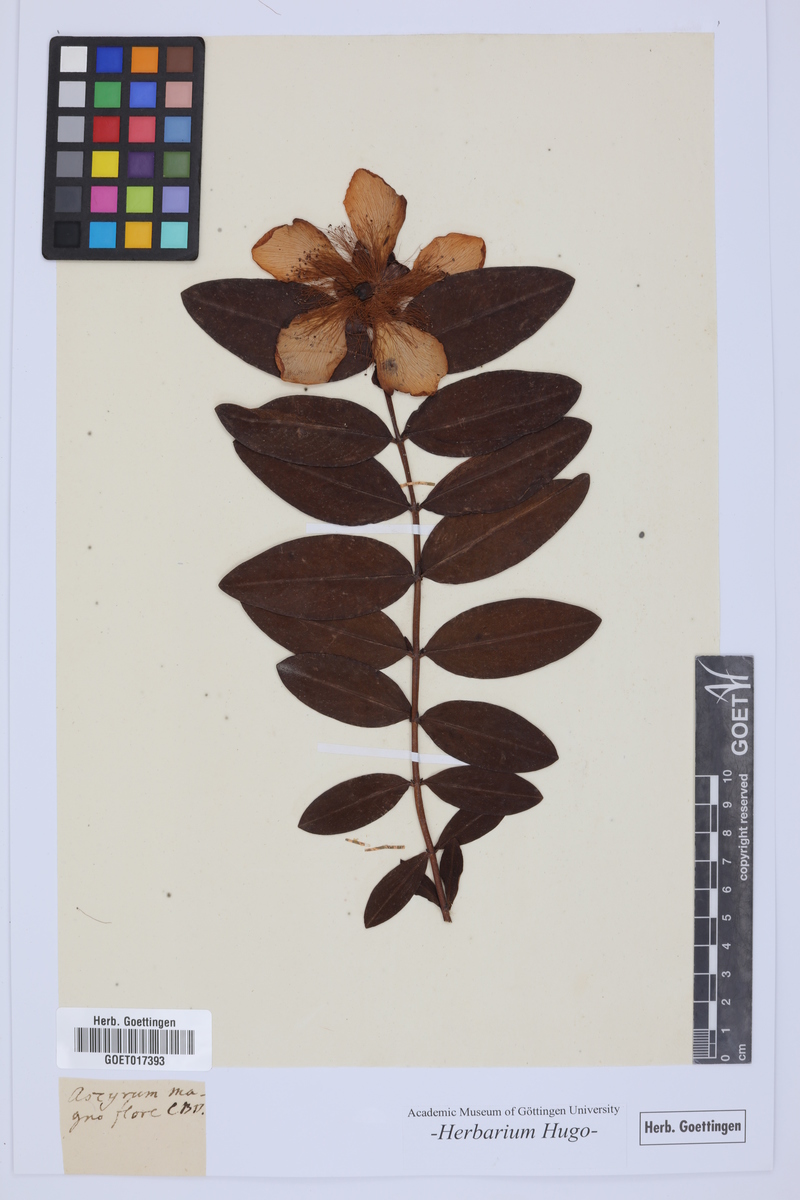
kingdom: Plantae
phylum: Tracheophyta
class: Magnoliopsida
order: Malpighiales
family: Hypericaceae
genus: Hypericum
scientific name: Hypericum olympicum
